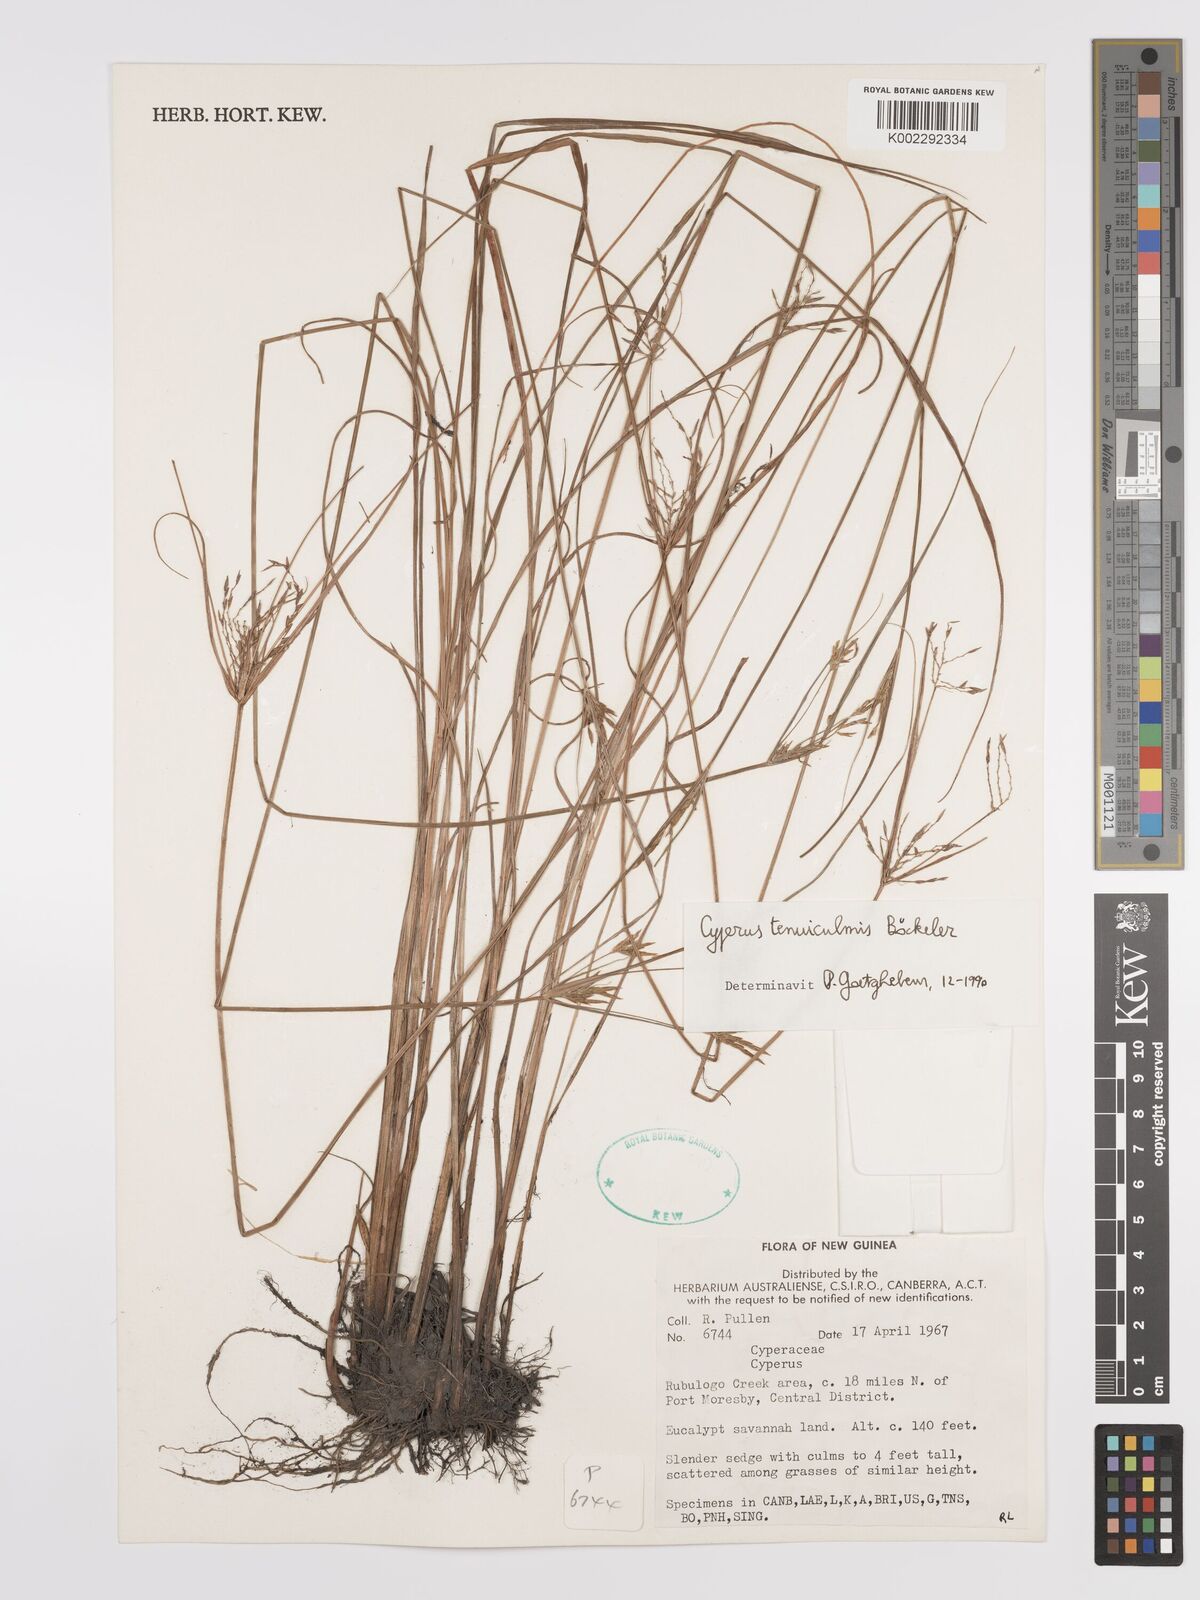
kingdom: Plantae
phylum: Tracheophyta
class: Liliopsida
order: Poales
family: Cyperaceae
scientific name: Cyperaceae
